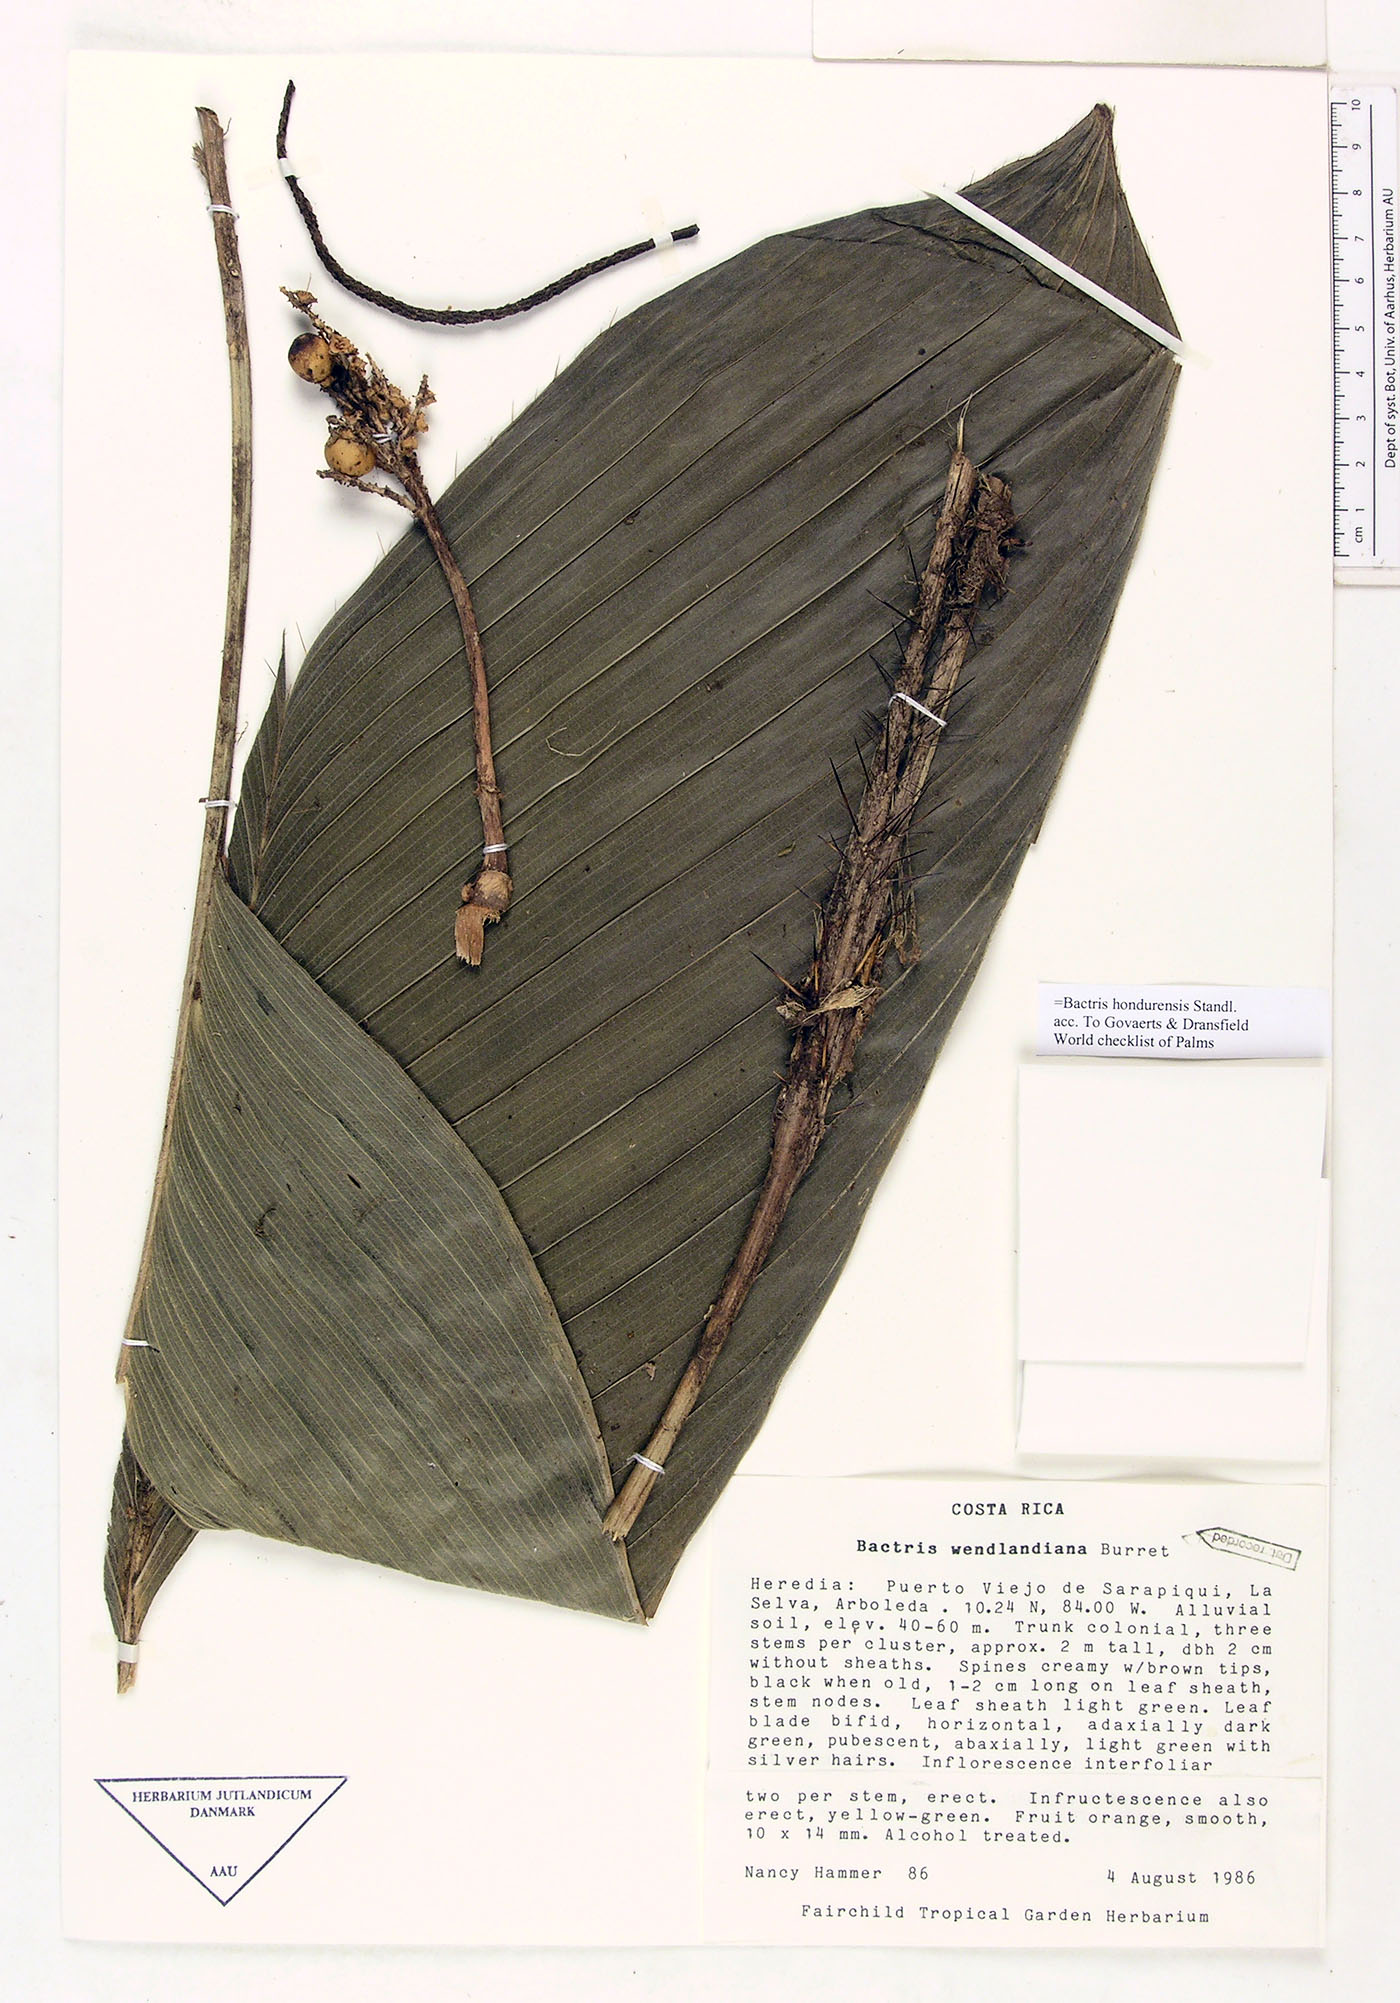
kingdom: Plantae
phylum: Tracheophyta
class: Liliopsida
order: Arecales
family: Arecaceae
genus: Bactris
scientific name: Bactris obovata
